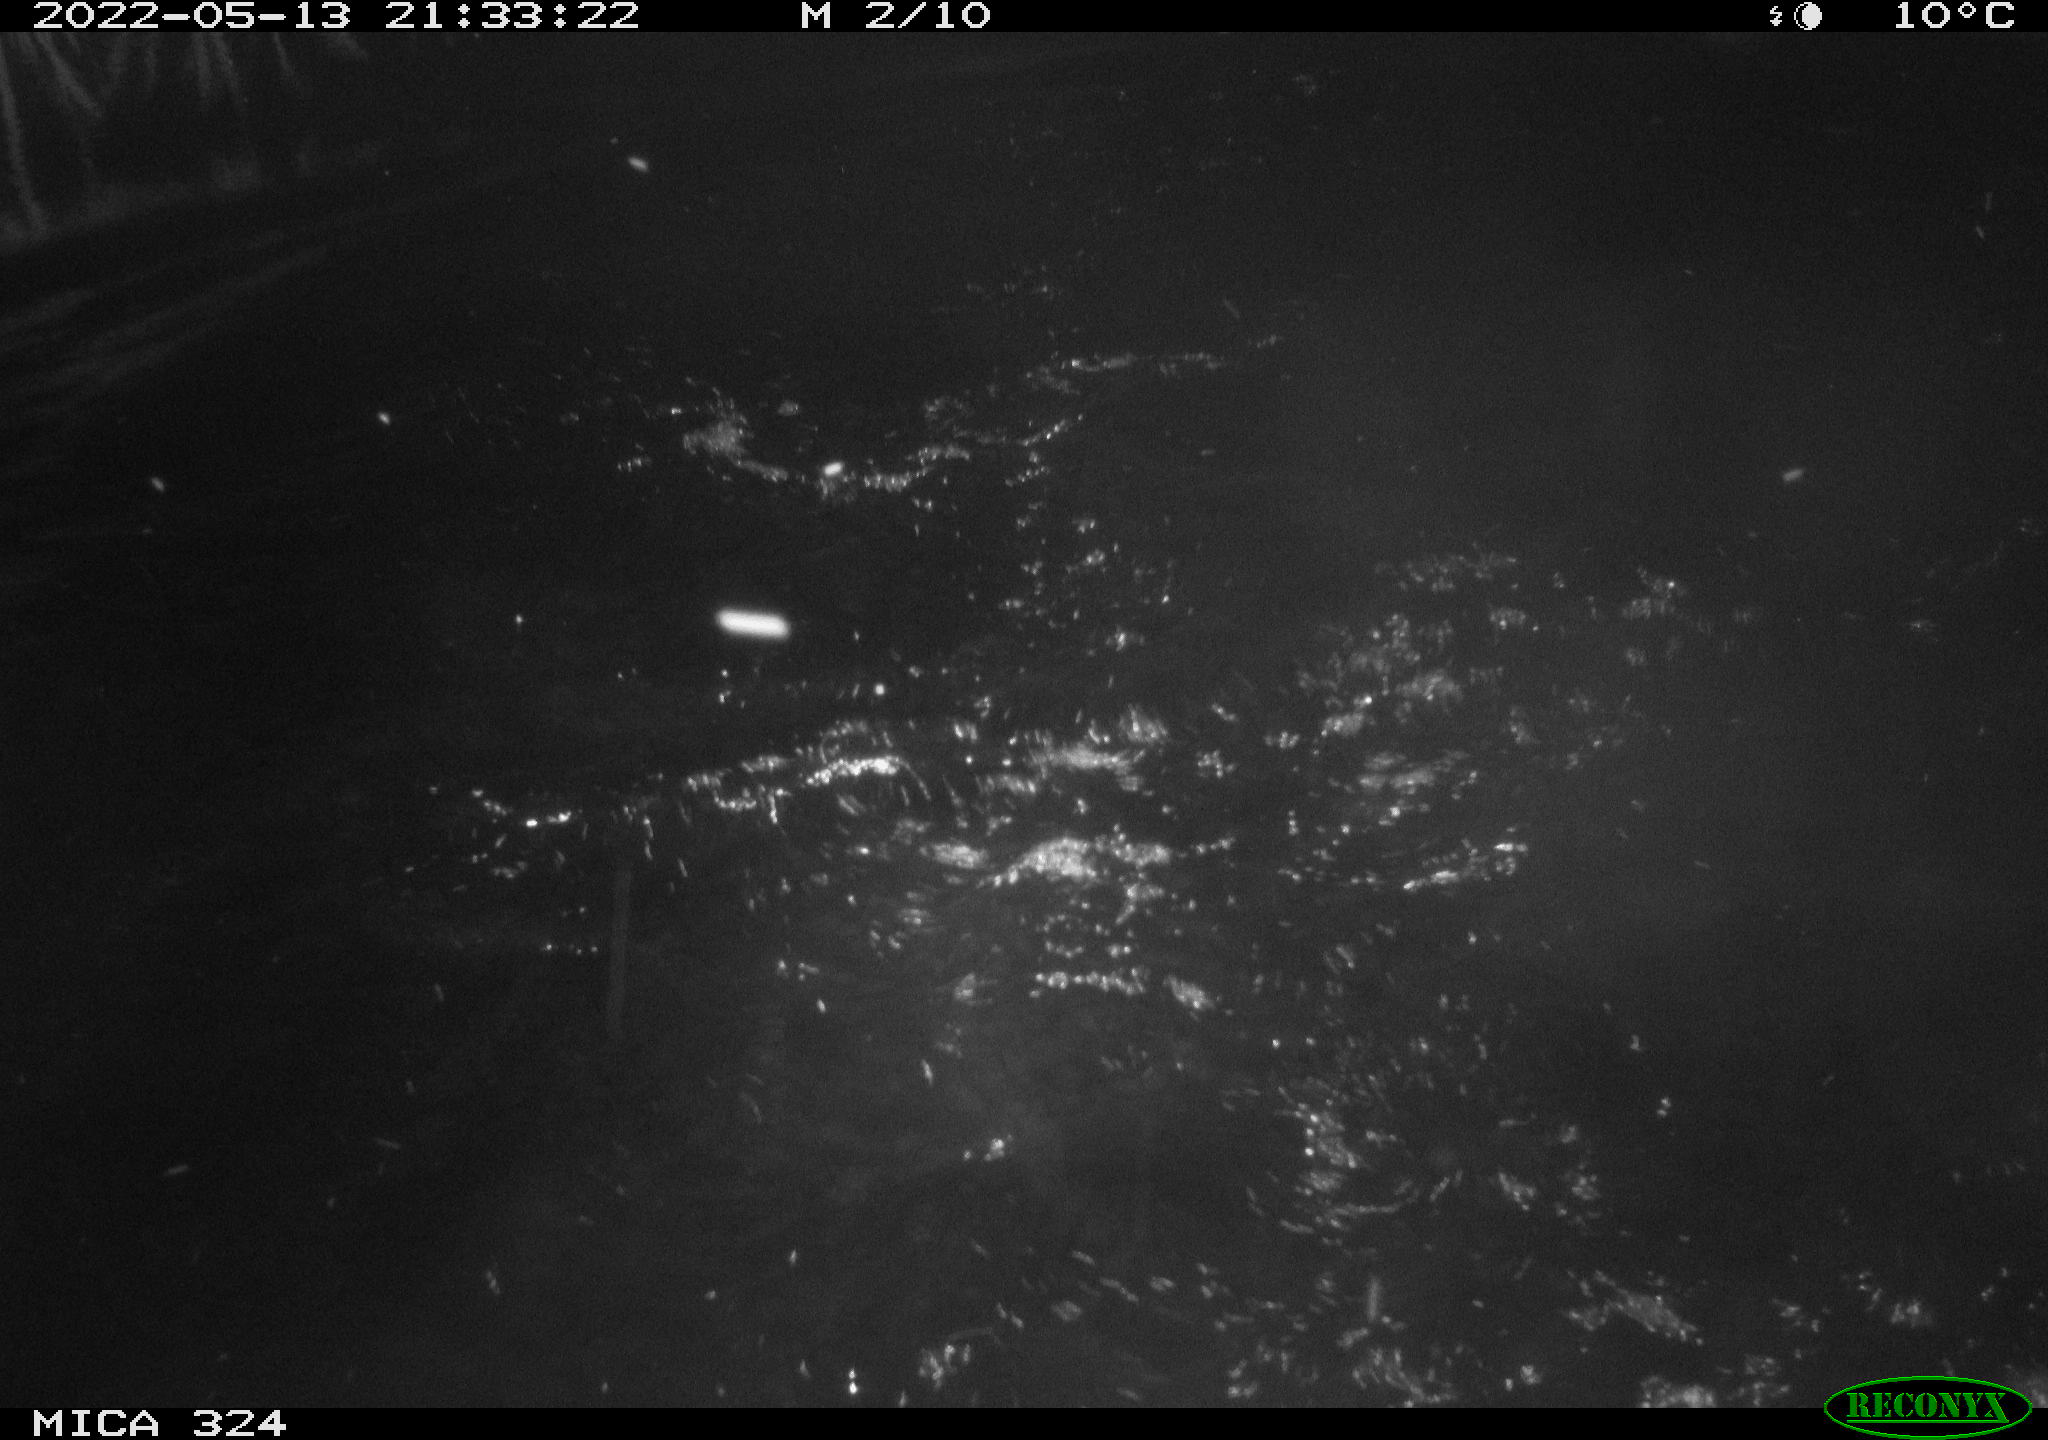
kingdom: Animalia
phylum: Chordata
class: Aves
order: Anseriformes
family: Anatidae
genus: Anas
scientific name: Anas
